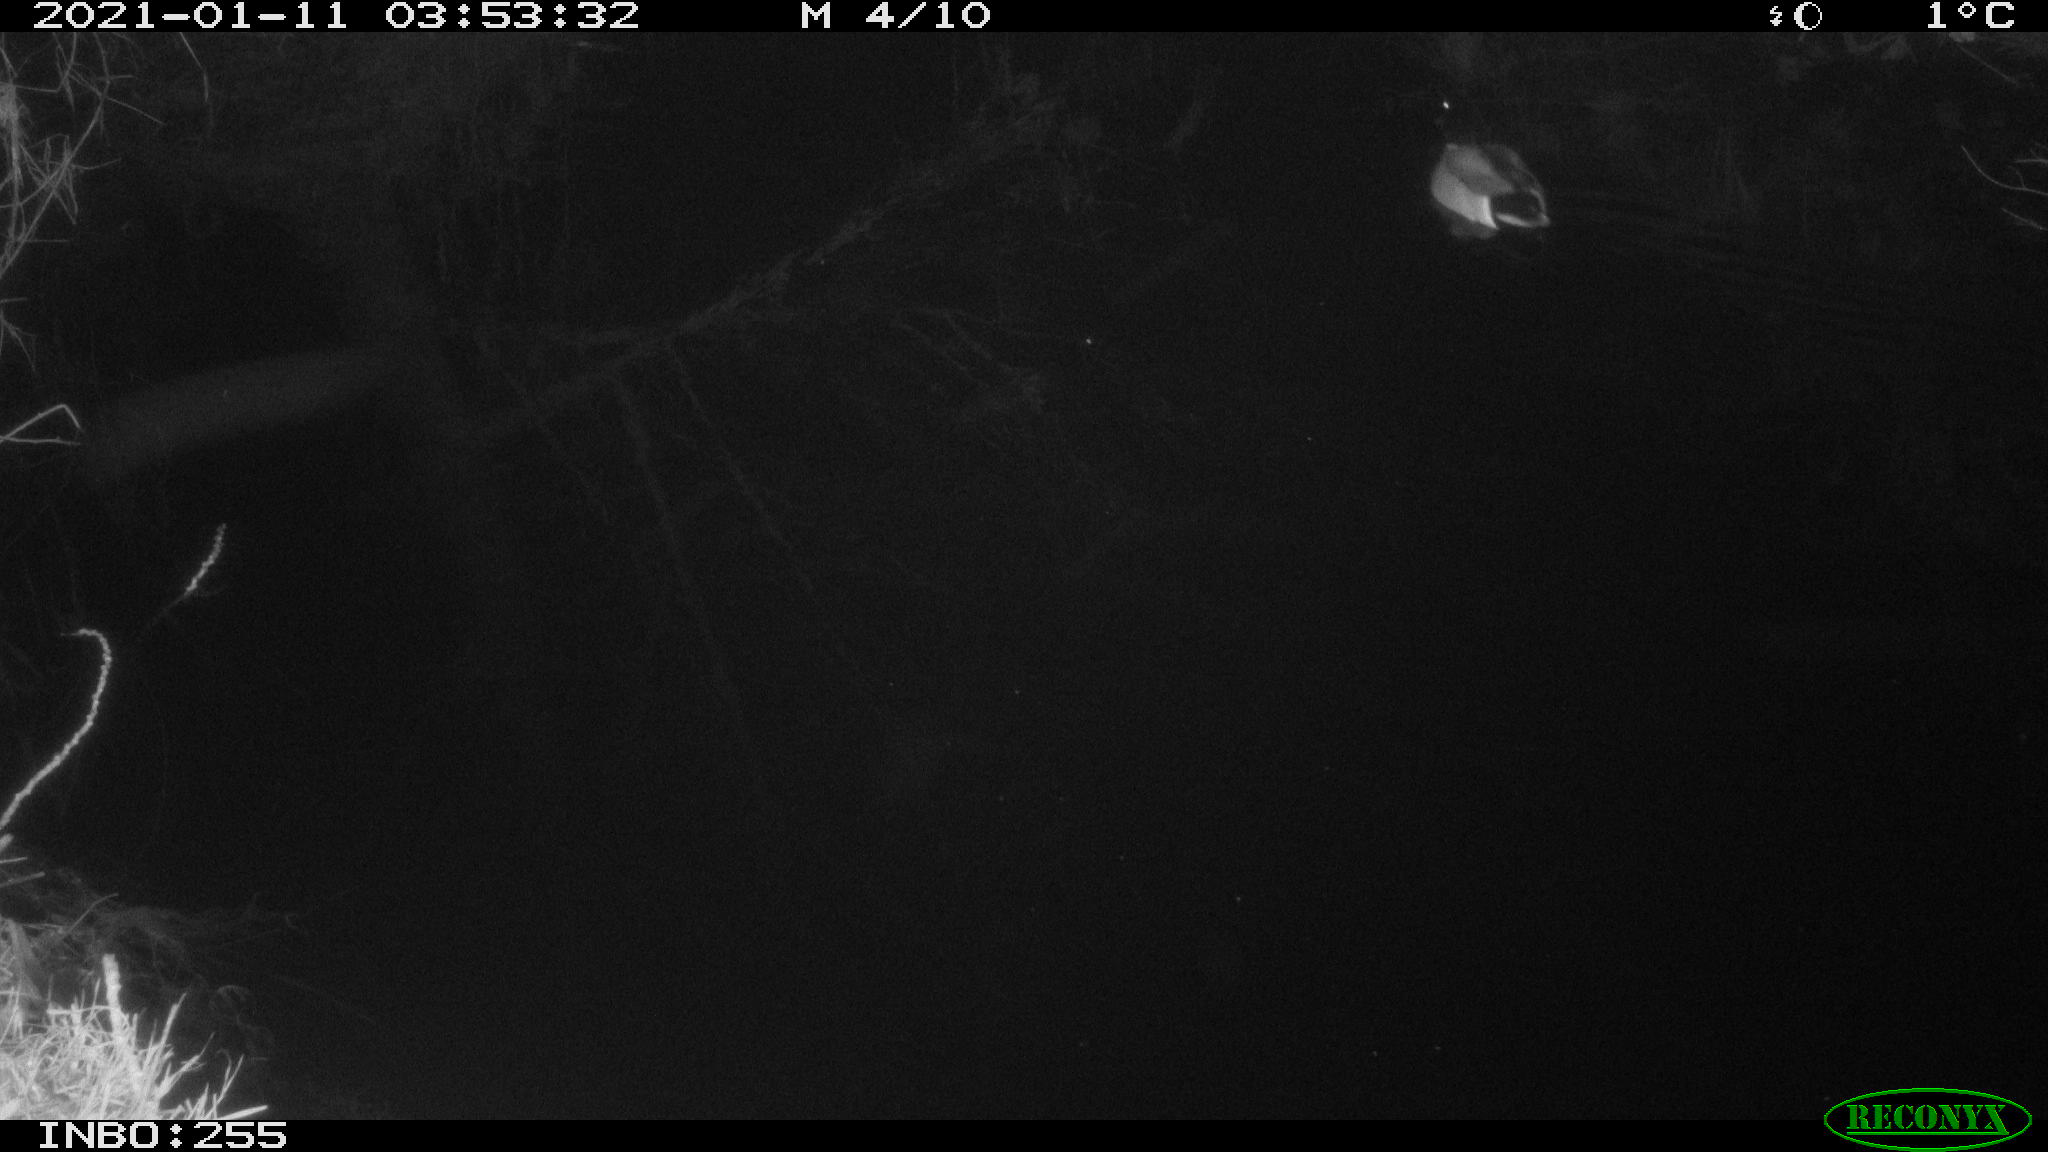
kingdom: Animalia
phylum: Chordata
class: Aves
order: Anseriformes
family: Anatidae
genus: Anas
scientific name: Anas platyrhynchos
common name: Mallard
